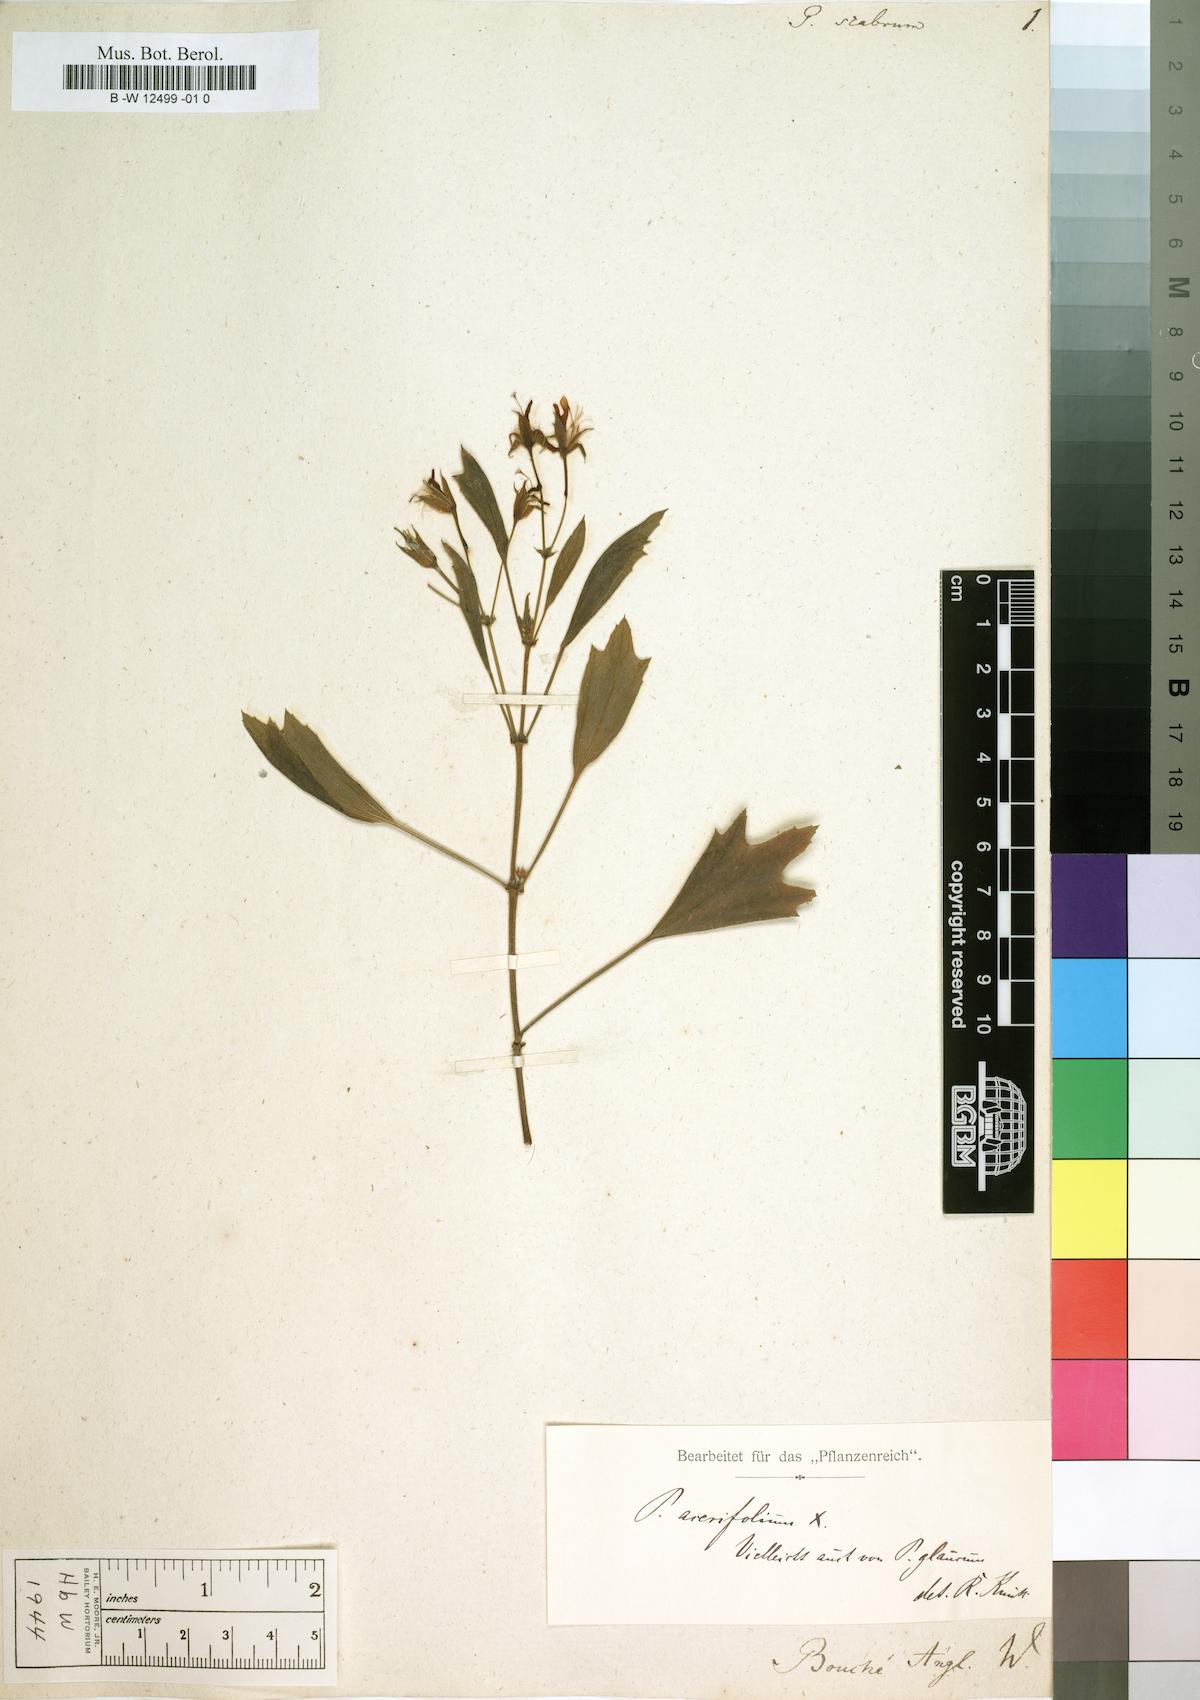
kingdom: Plantae
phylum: Tracheophyta
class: Magnoliopsida
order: Geraniales
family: Geraniaceae
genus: Pelargonium
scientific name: Pelargonium scabrum
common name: Apricot geranium
